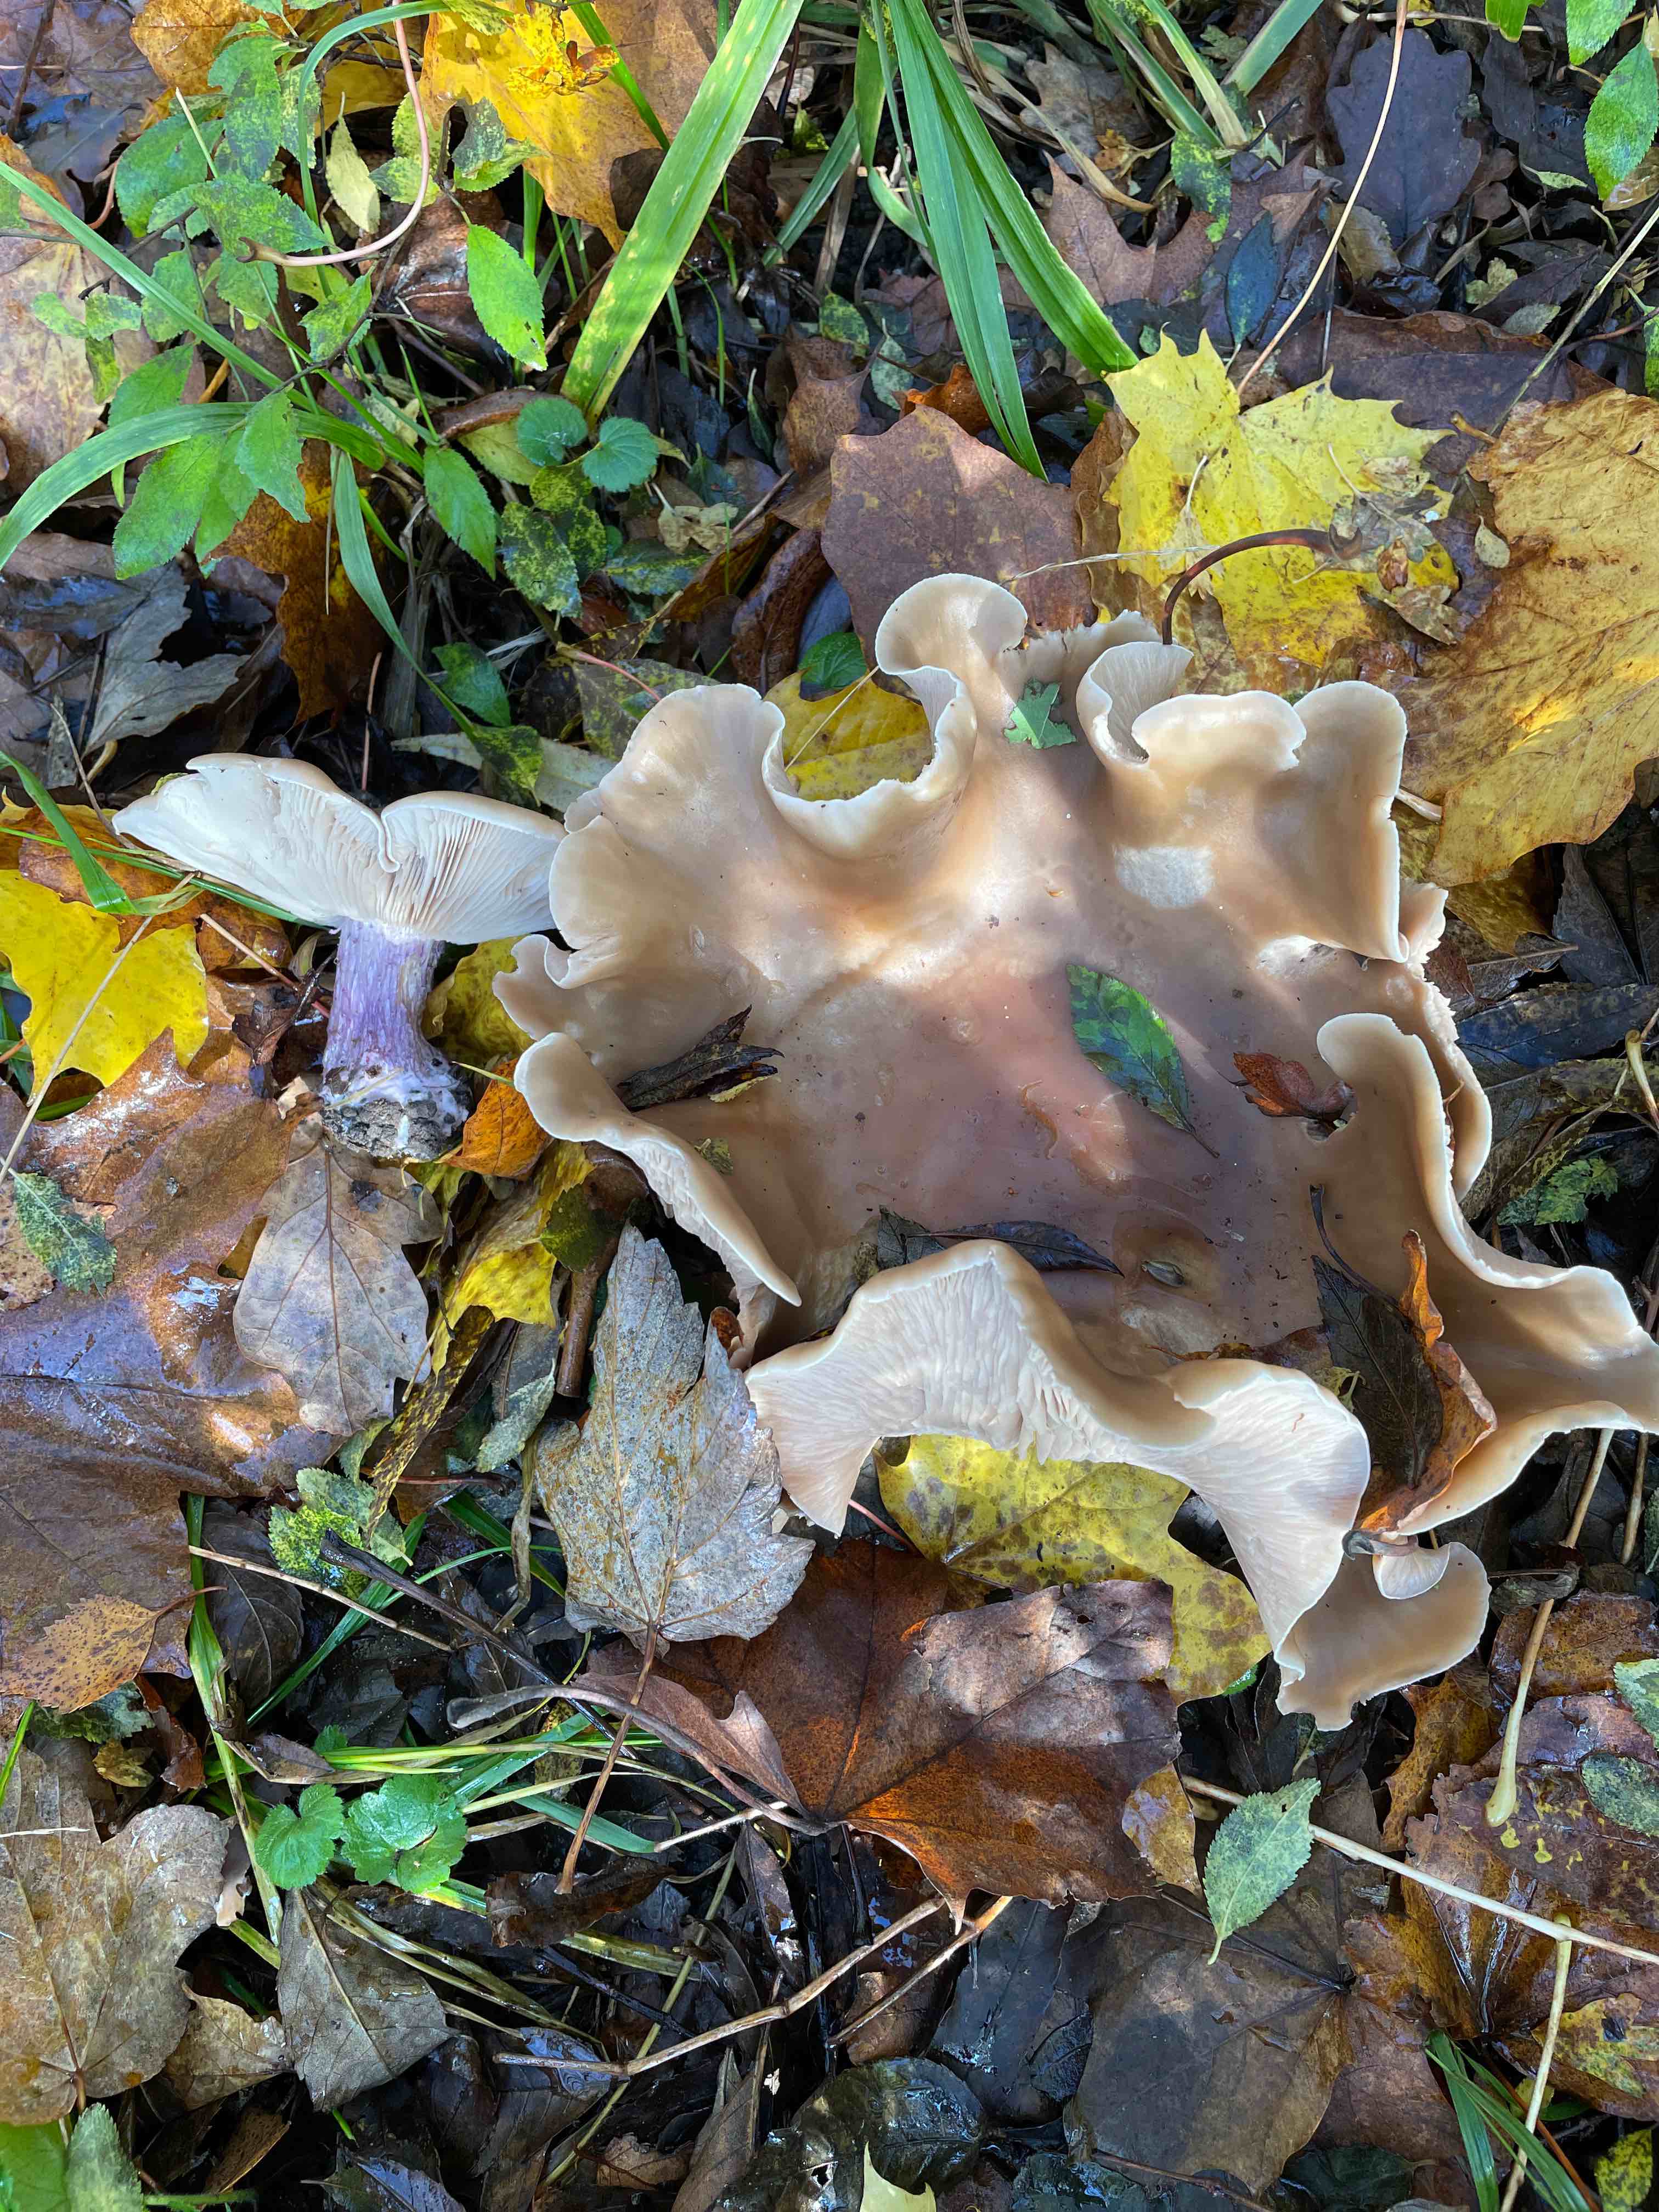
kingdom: Fungi
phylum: Basidiomycota
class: Agaricomycetes
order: Agaricales
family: Tricholomataceae
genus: Lepista
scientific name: Lepista personata
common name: bleg hekseringshat
